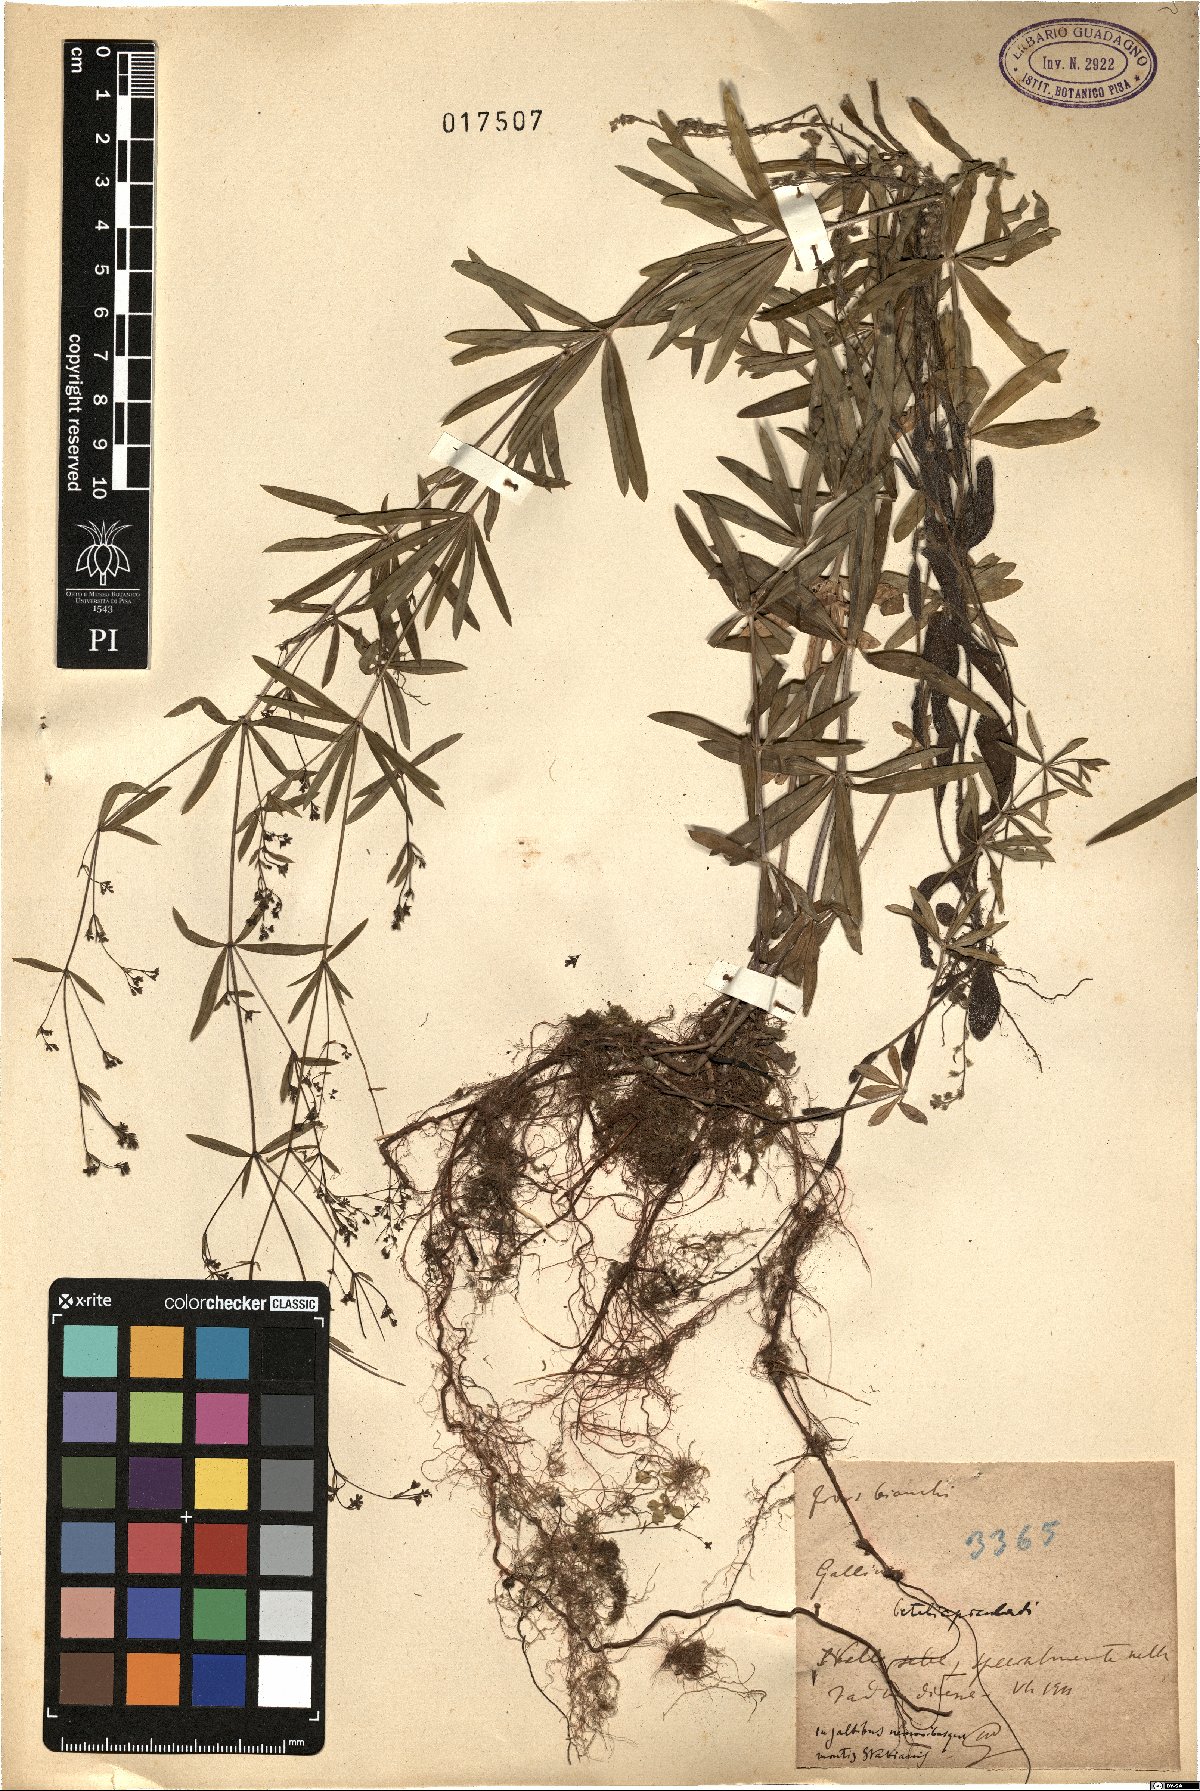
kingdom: Plantae
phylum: Tracheophyta
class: Magnoliopsida
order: Gentianales
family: Rubiaceae
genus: Galium
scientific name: Galium
